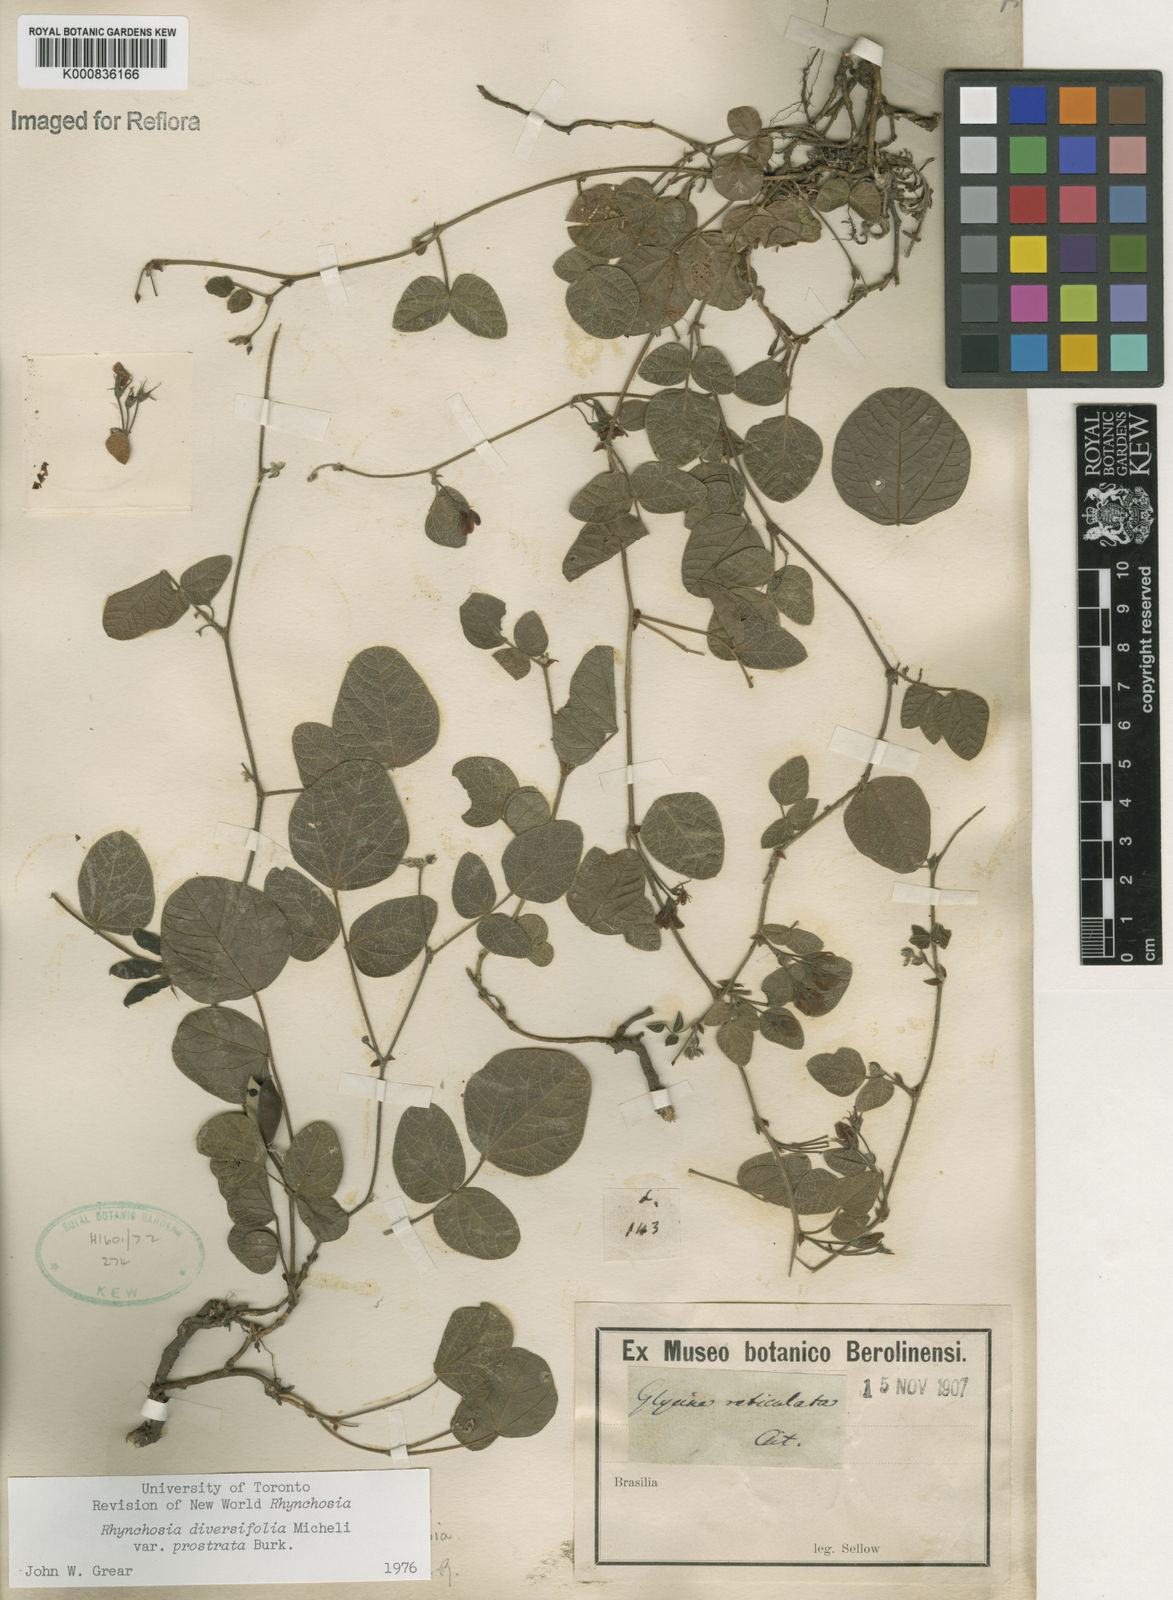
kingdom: Plantae
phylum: Tracheophyta
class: Magnoliopsida
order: Fabales
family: Fabaceae
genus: Rhynchosia
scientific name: Rhynchosia bicentrica
